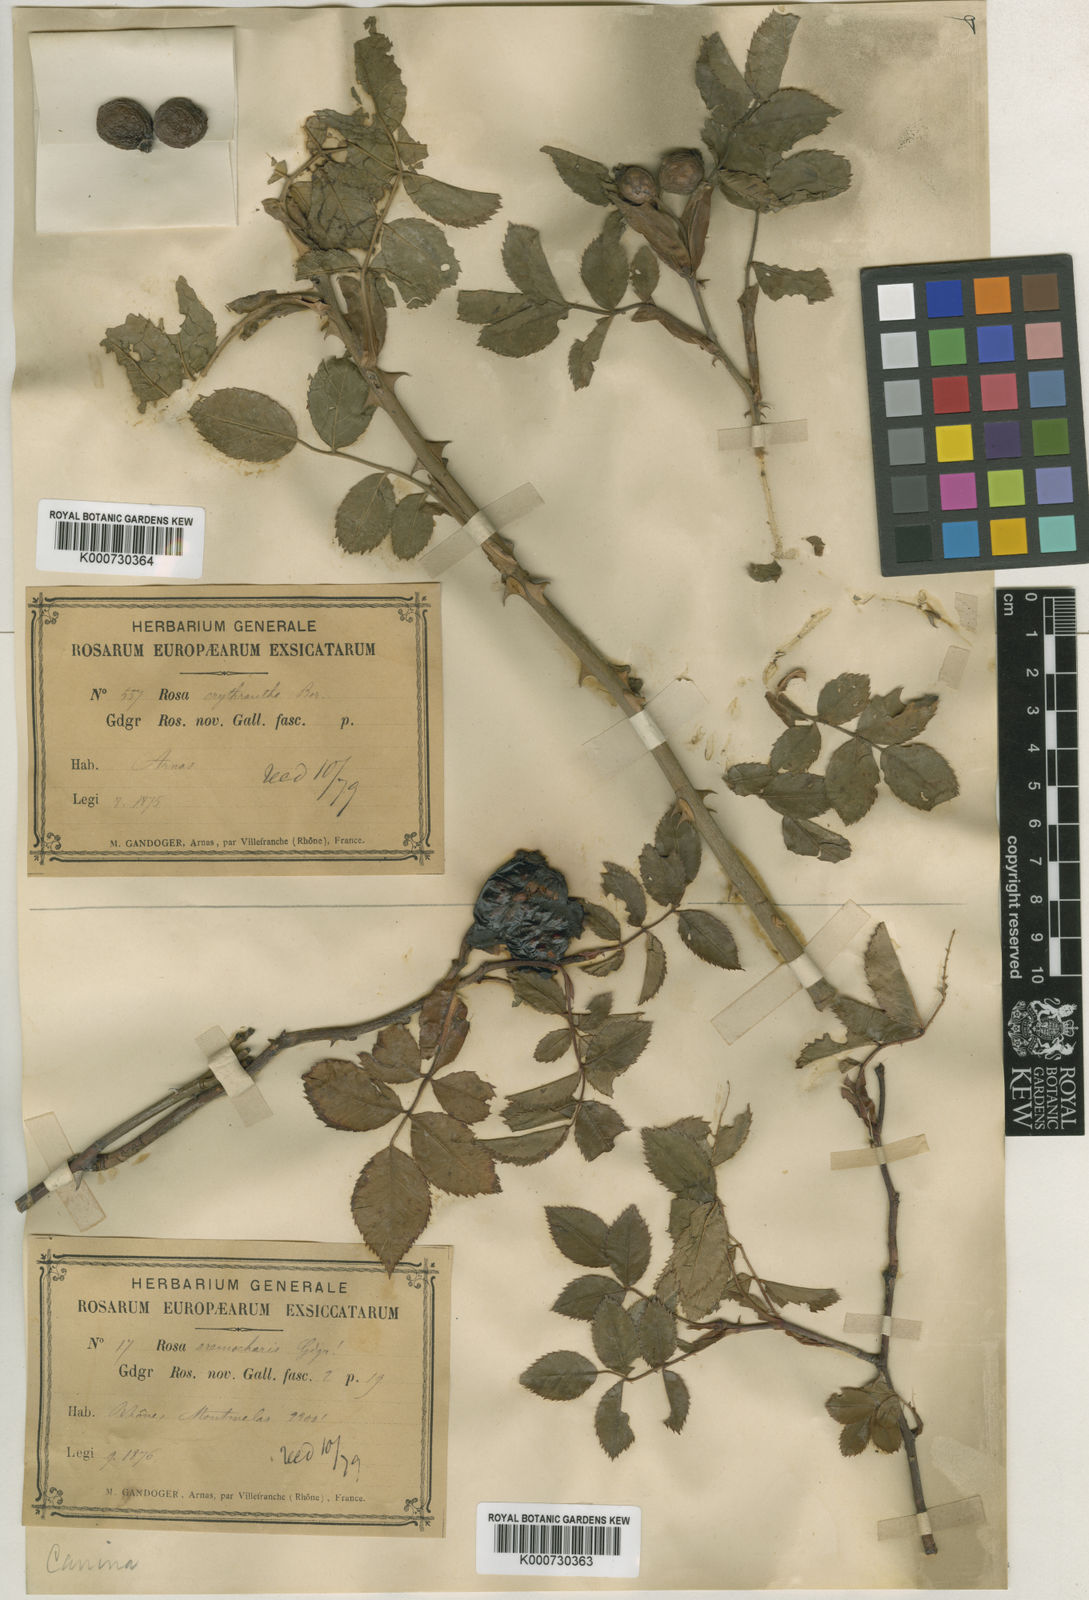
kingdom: Plantae
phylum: Tracheophyta
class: Magnoliopsida
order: Rosales
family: Rosaceae
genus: Rosa
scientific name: Rosa canina
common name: Dog rose
